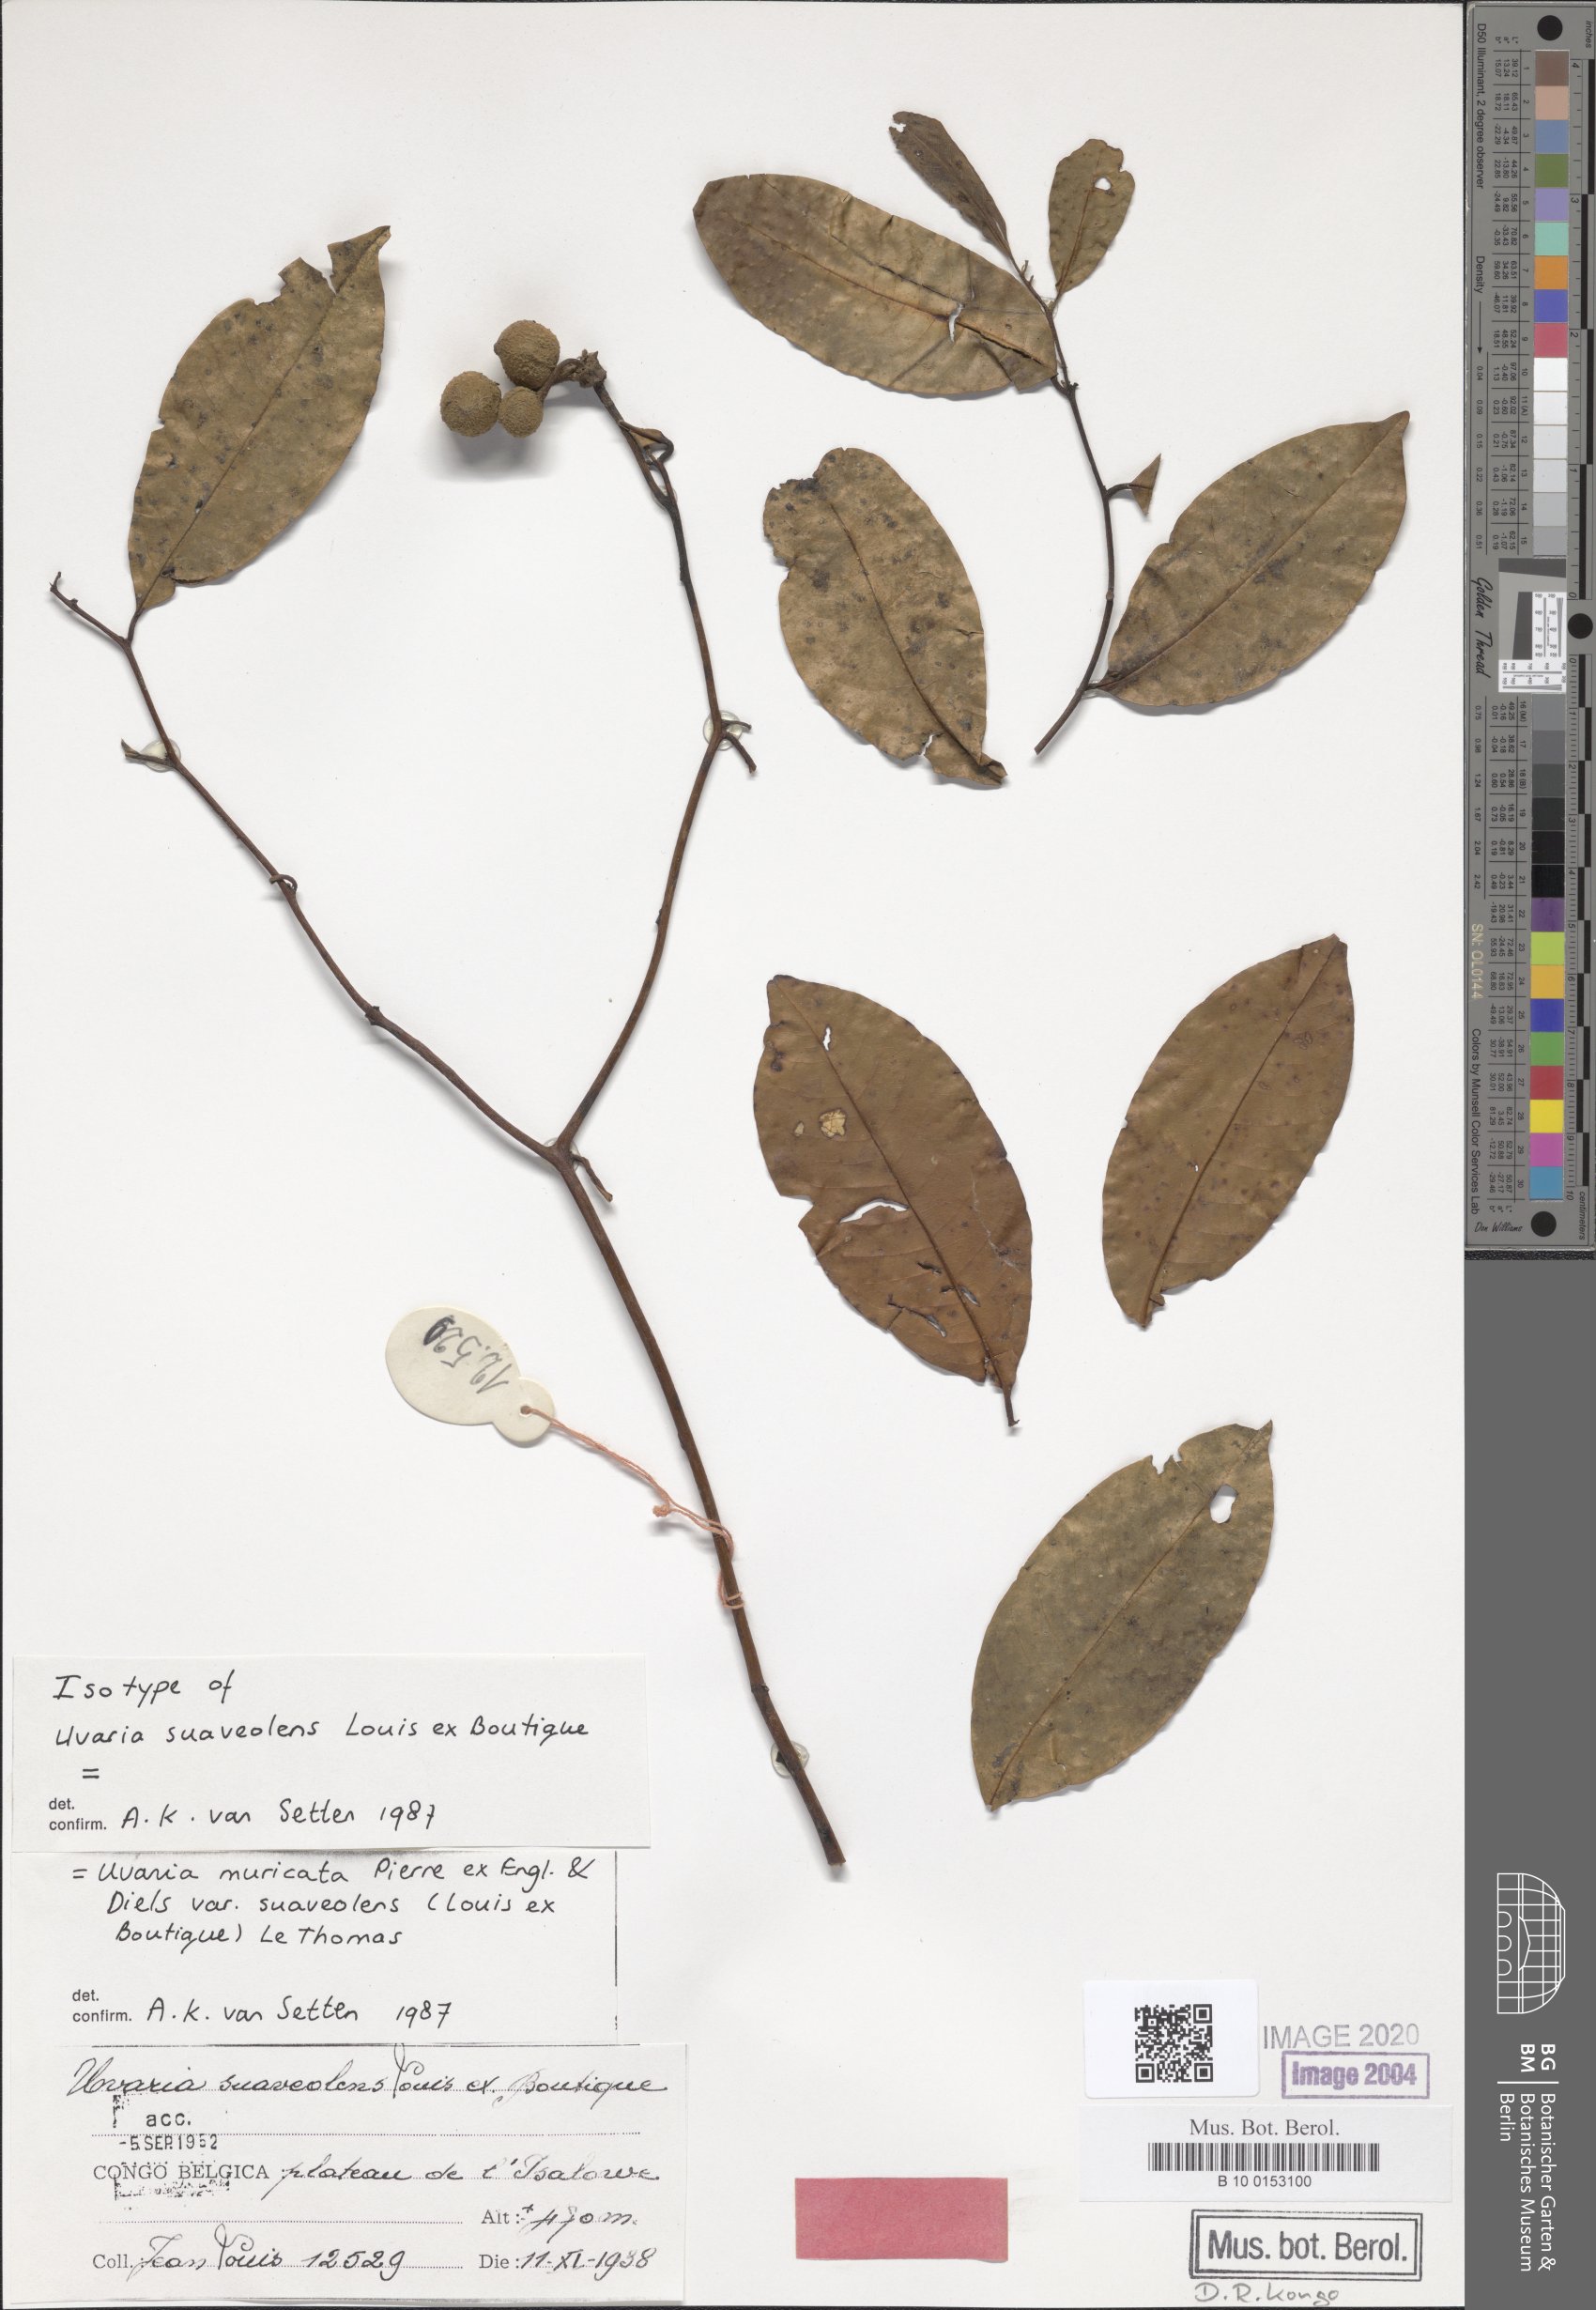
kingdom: Plantae
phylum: Tracheophyta
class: Magnoliopsida
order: Magnoliales
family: Annonaceae
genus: Uvaria
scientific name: Uvaria muricata
